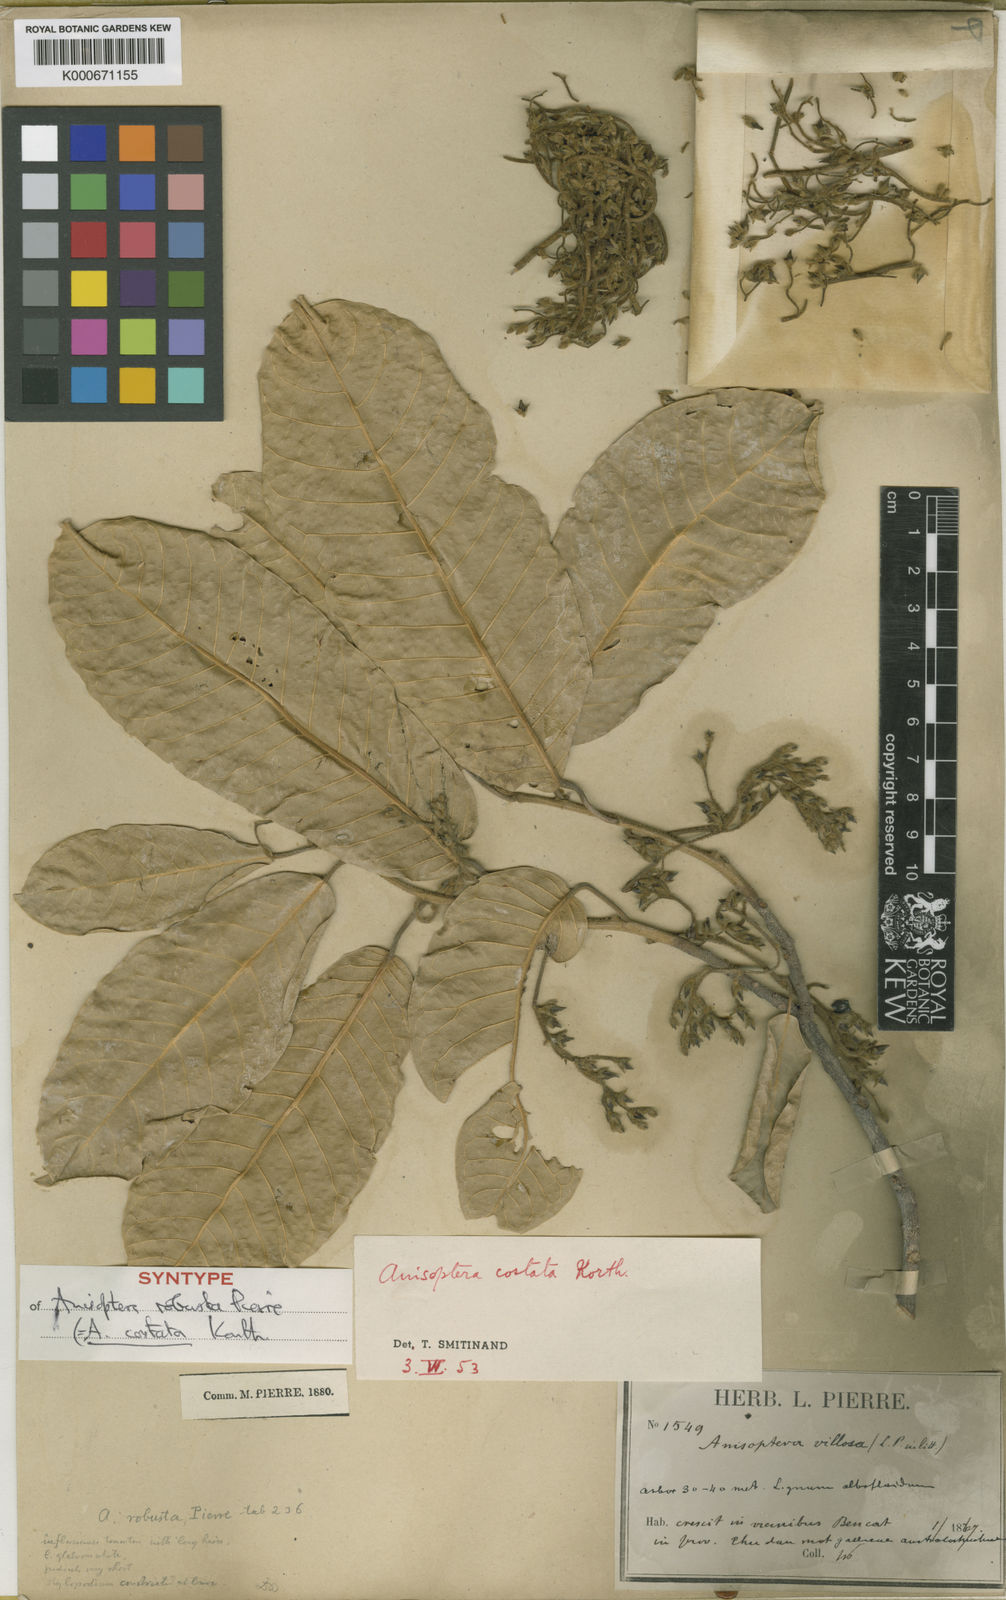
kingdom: Plantae
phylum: Tracheophyta
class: Magnoliopsida
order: Malvales
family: Dipterocarpaceae
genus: Anisoptera
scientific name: Anisoptera costata
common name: Mersawa
